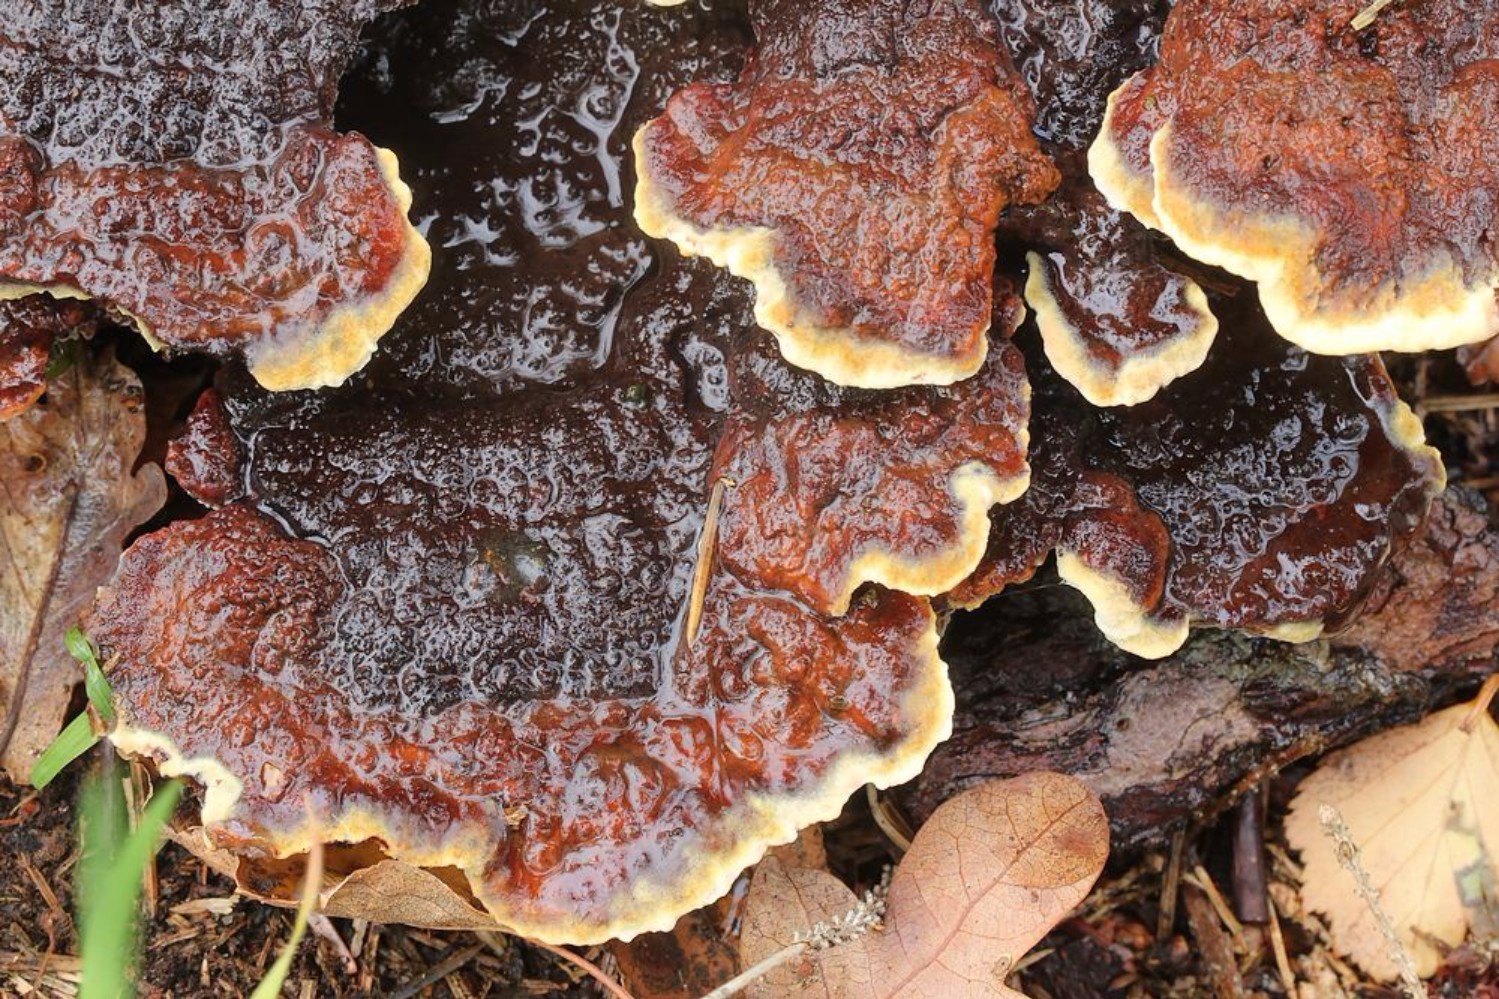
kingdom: Fungi
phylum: Basidiomycota
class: Agaricomycetes
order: Polyporales
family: Laetiporaceae
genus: Phaeolus
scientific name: Phaeolus schweinitzii
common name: brunporesvamp
